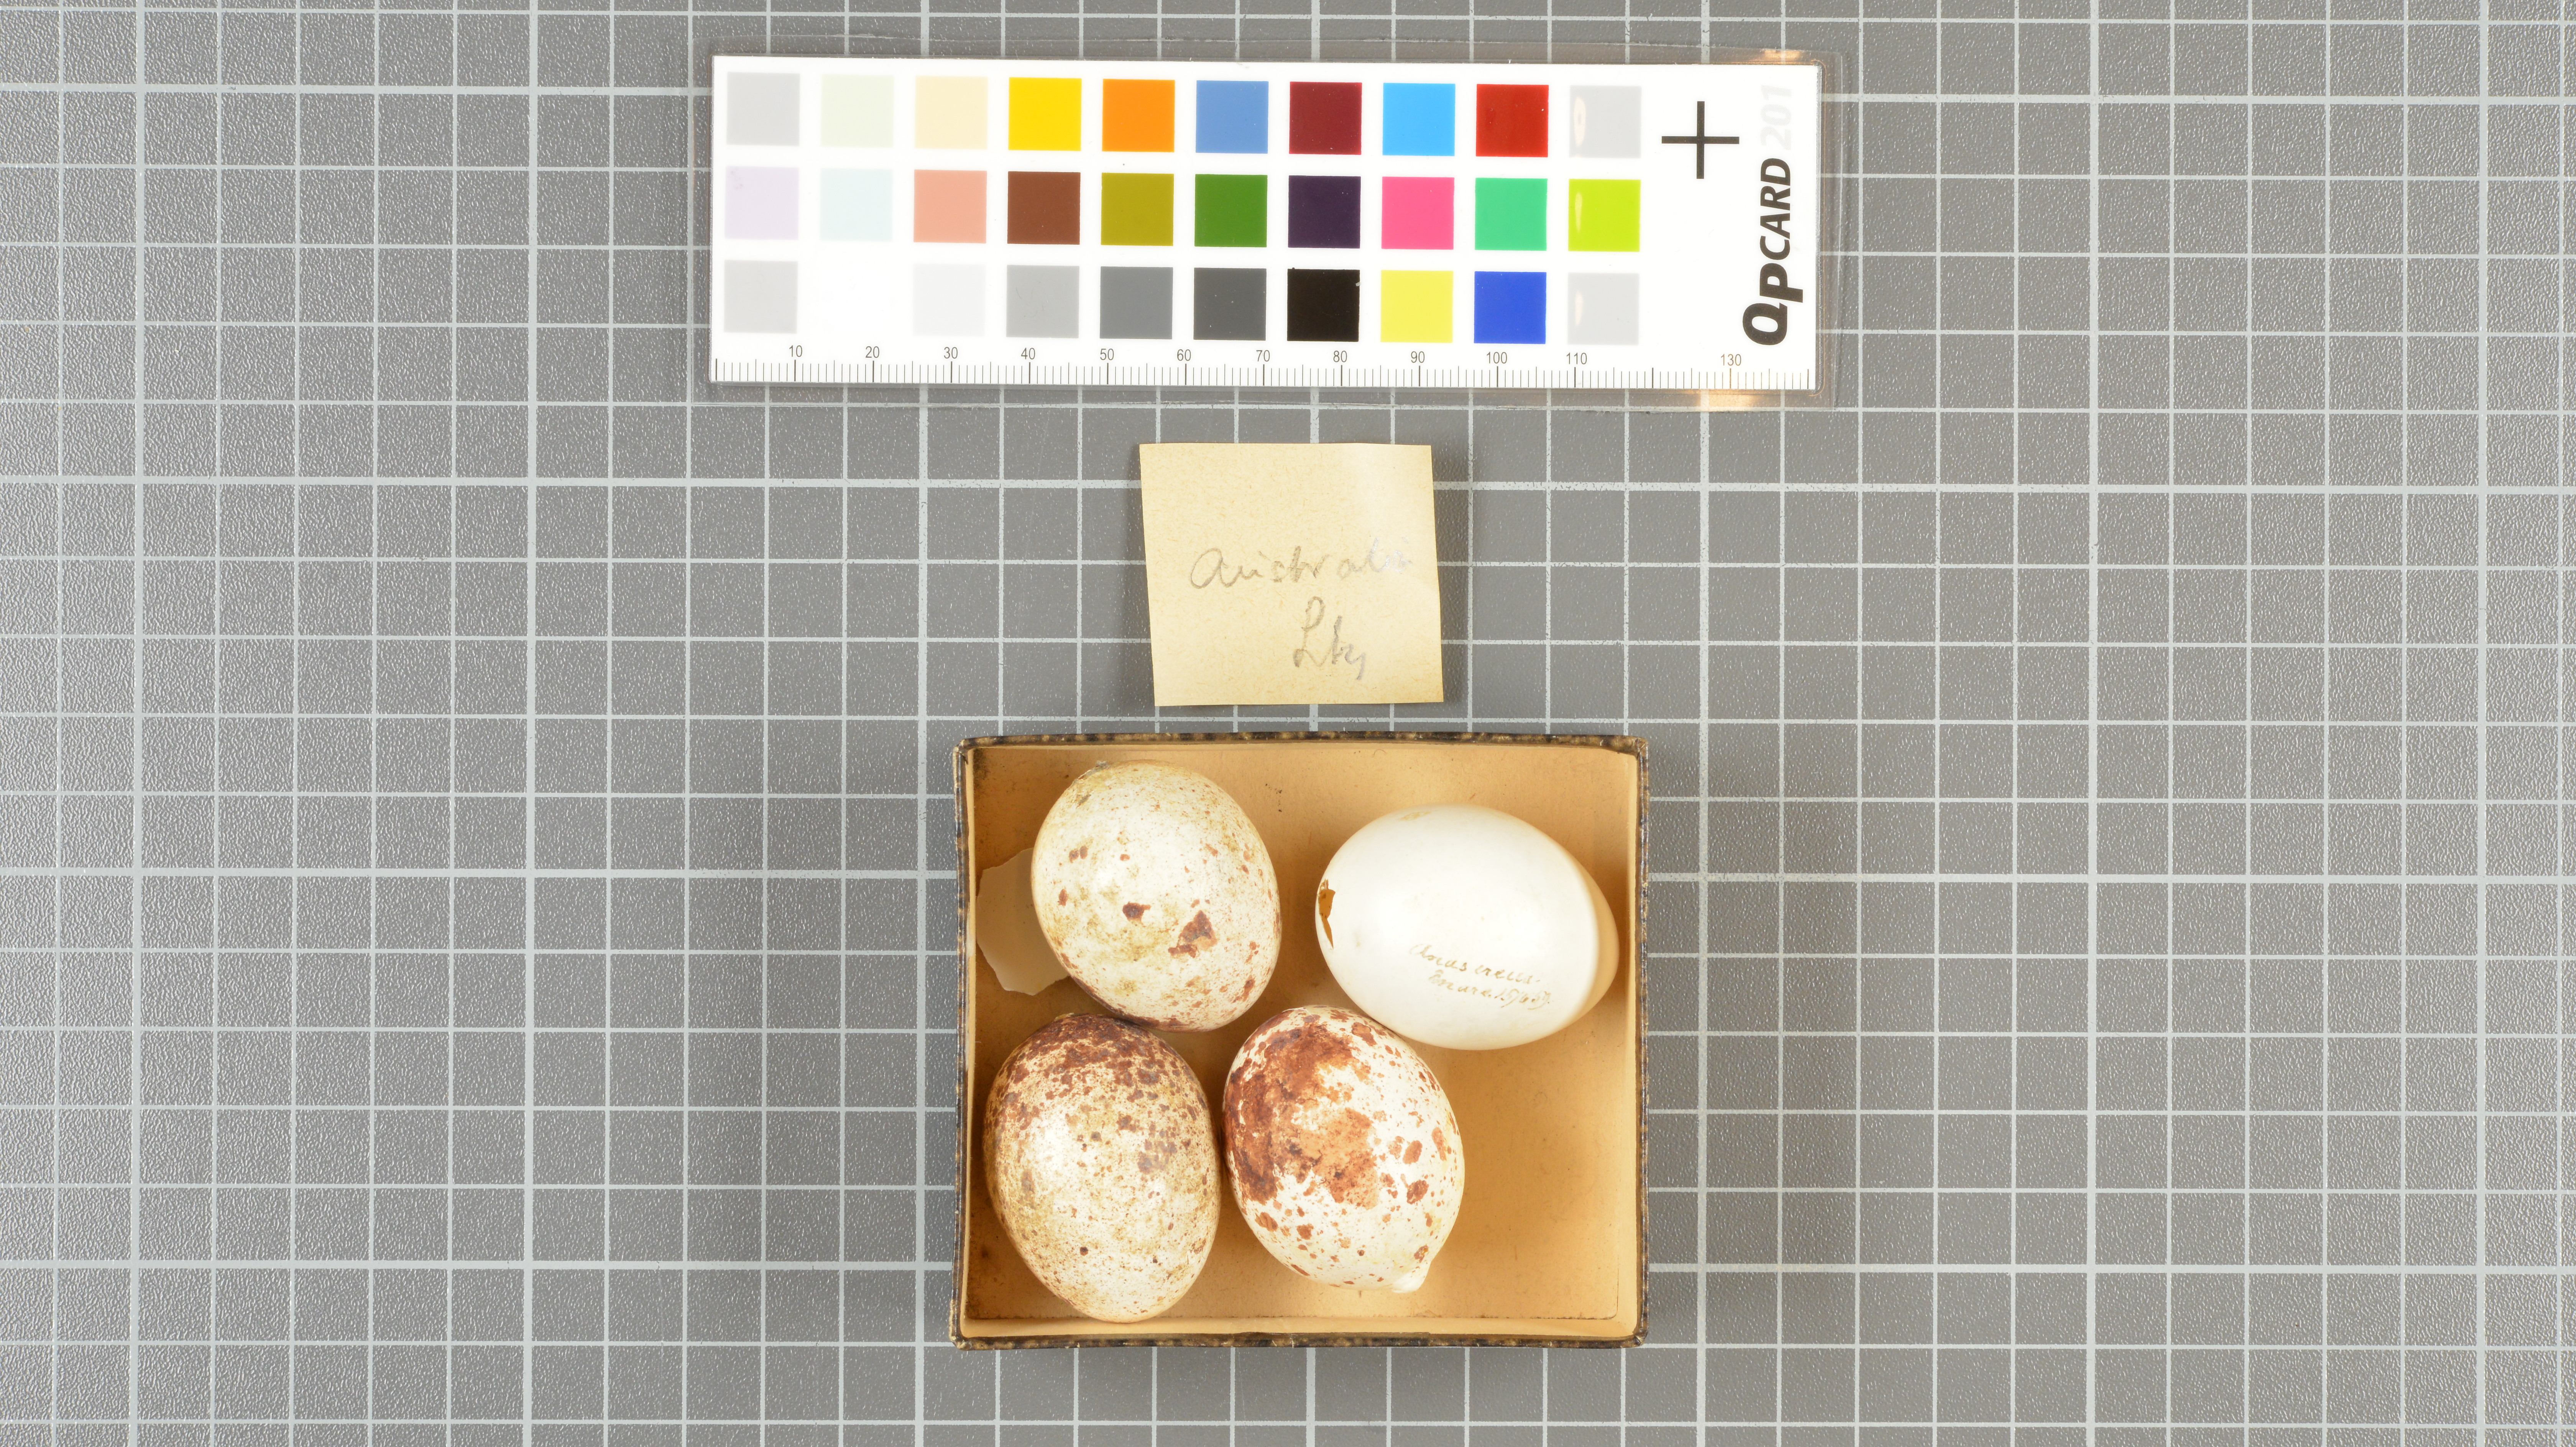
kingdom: Animalia
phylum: Chordata
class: Aves
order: Anseriformes
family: Anatidae
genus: Anas
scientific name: Anas crecca
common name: Eurasian teal
